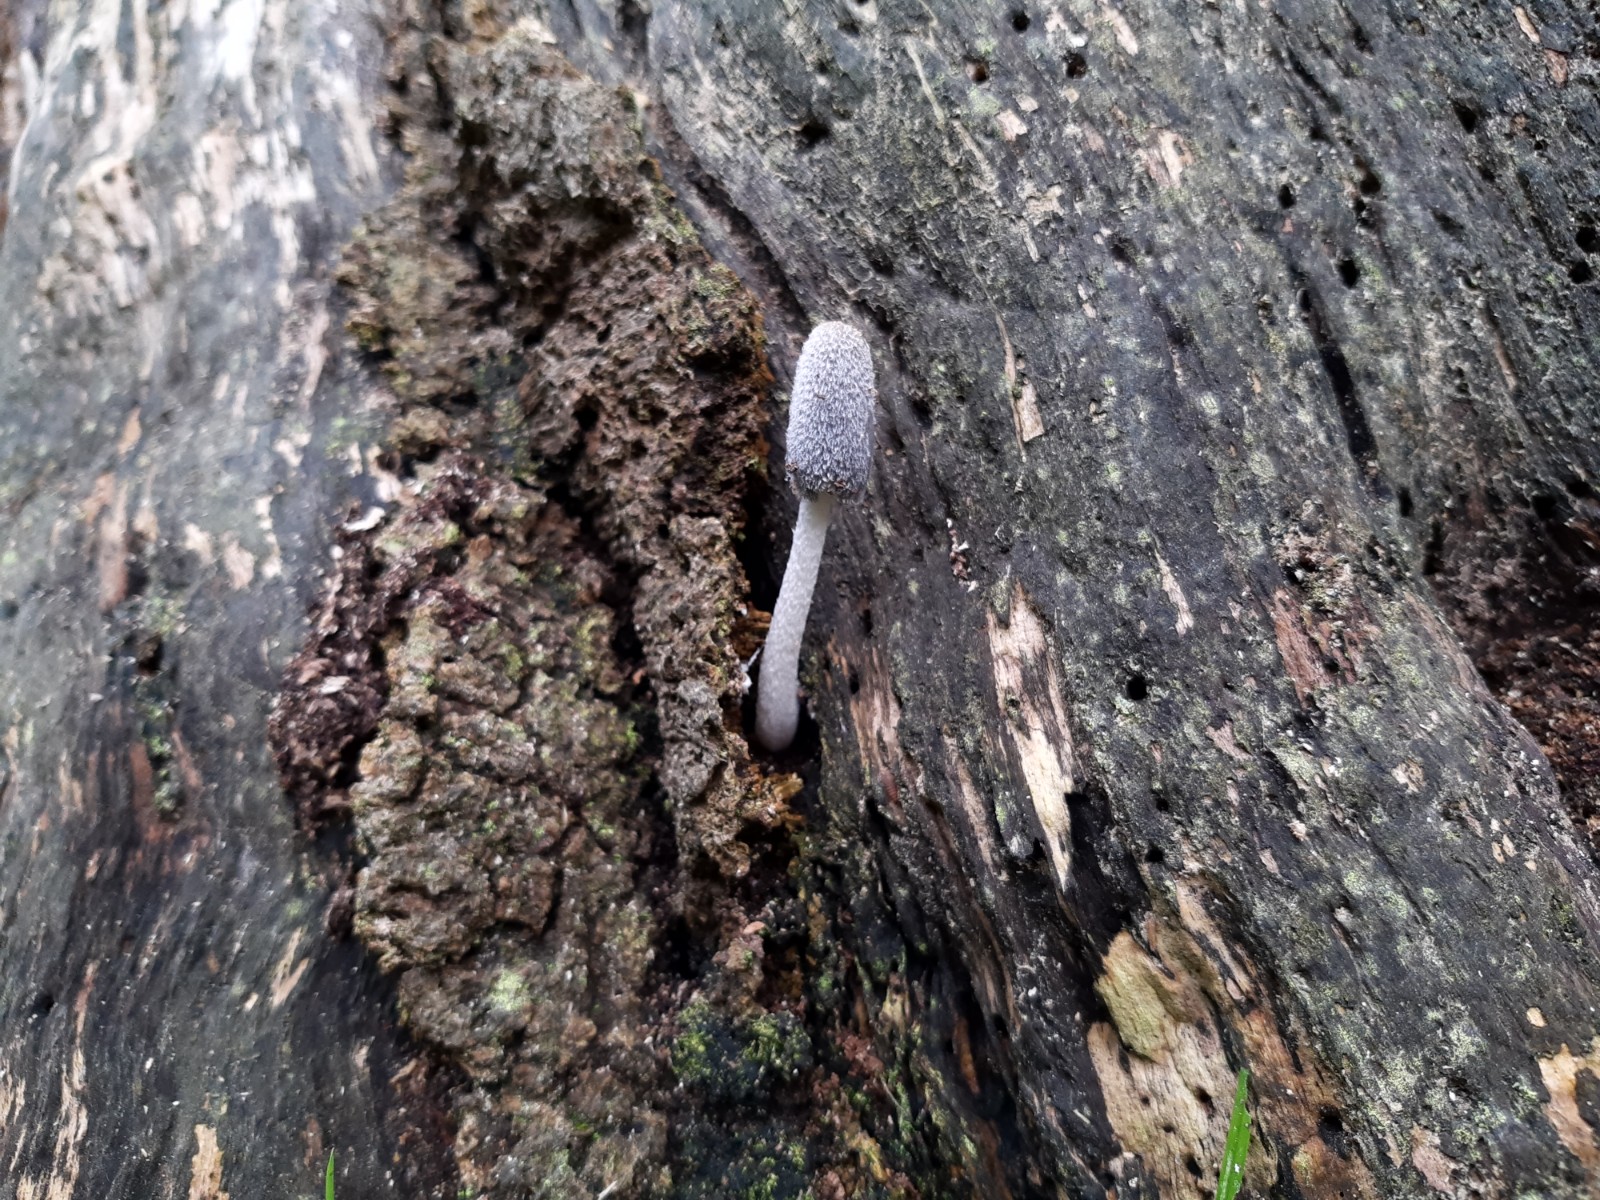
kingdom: Fungi
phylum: Basidiomycota
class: Agaricomycetes
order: Agaricales
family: Psathyrellaceae
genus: Coprinopsis
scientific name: Coprinopsis lagopus
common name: dunstokket blækhat
